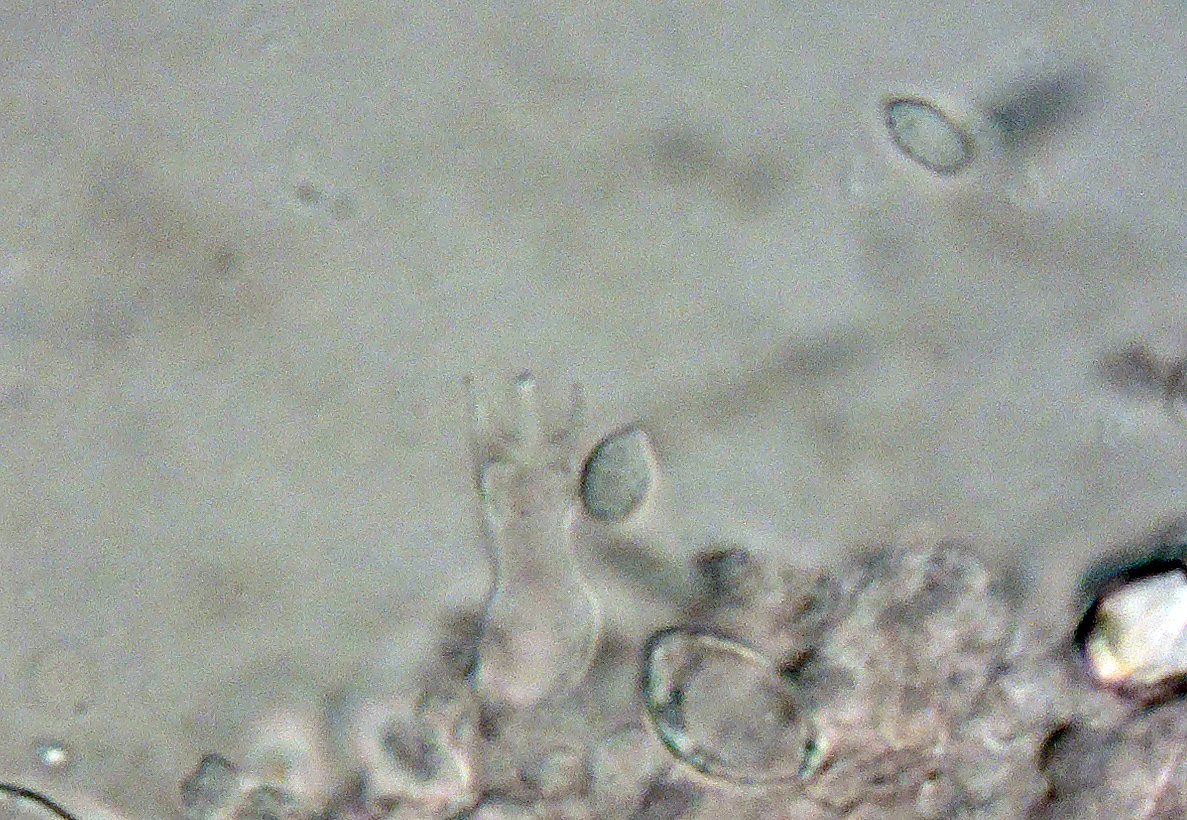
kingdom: Fungi
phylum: Basidiomycota
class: Agaricomycetes
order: Trechisporales
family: Sistotremataceae
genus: Trechispora
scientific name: Trechispora cohaerens
